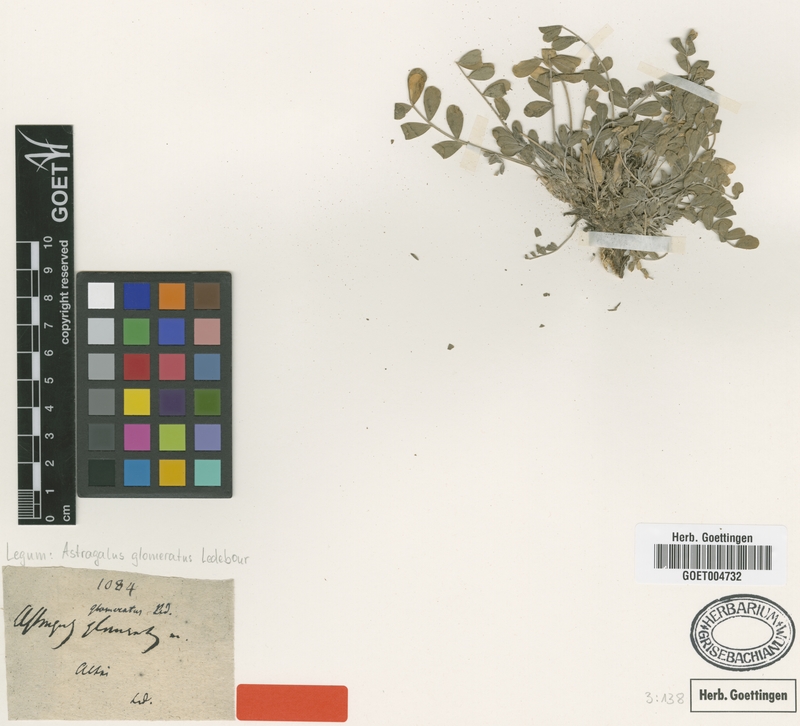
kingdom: Plantae
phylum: Tracheophyta
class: Magnoliopsida
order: Fabales
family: Fabaceae
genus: Astragalus
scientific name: Astragalus glomeratus
